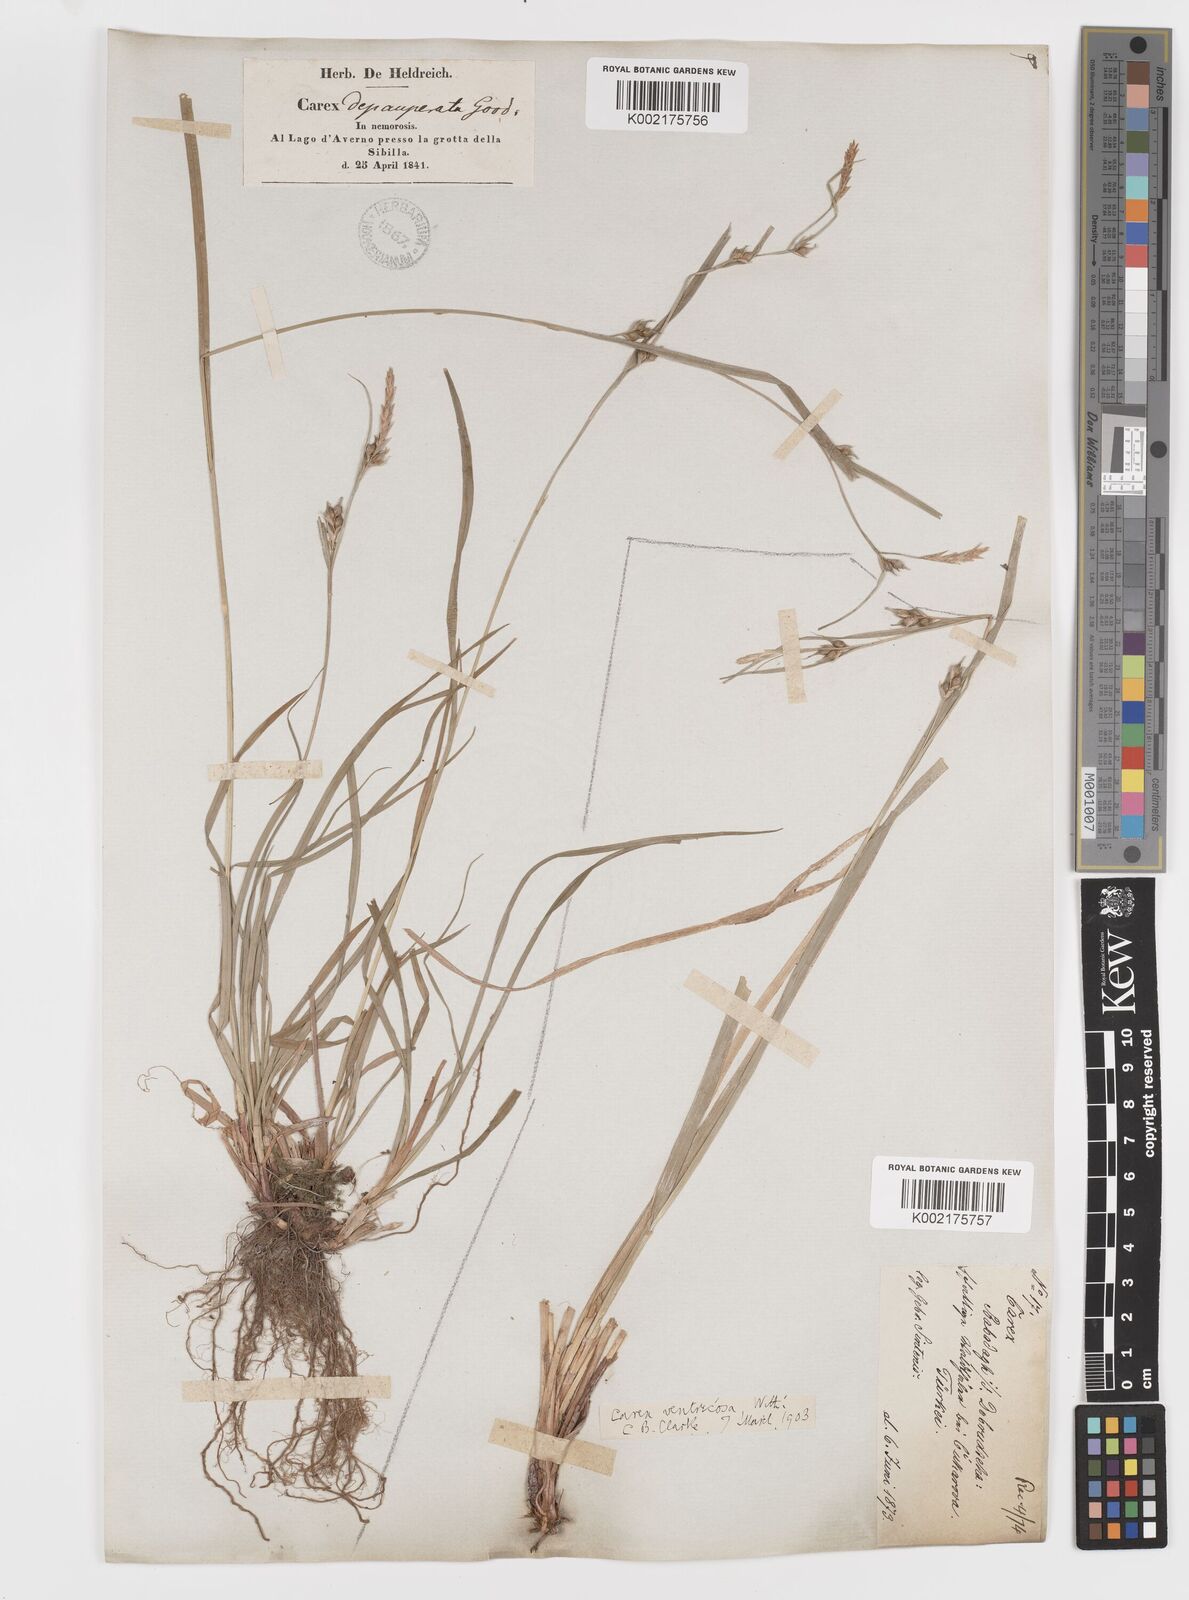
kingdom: Plantae
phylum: Tracheophyta
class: Liliopsida
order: Poales
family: Cyperaceae
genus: Carex
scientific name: Carex
